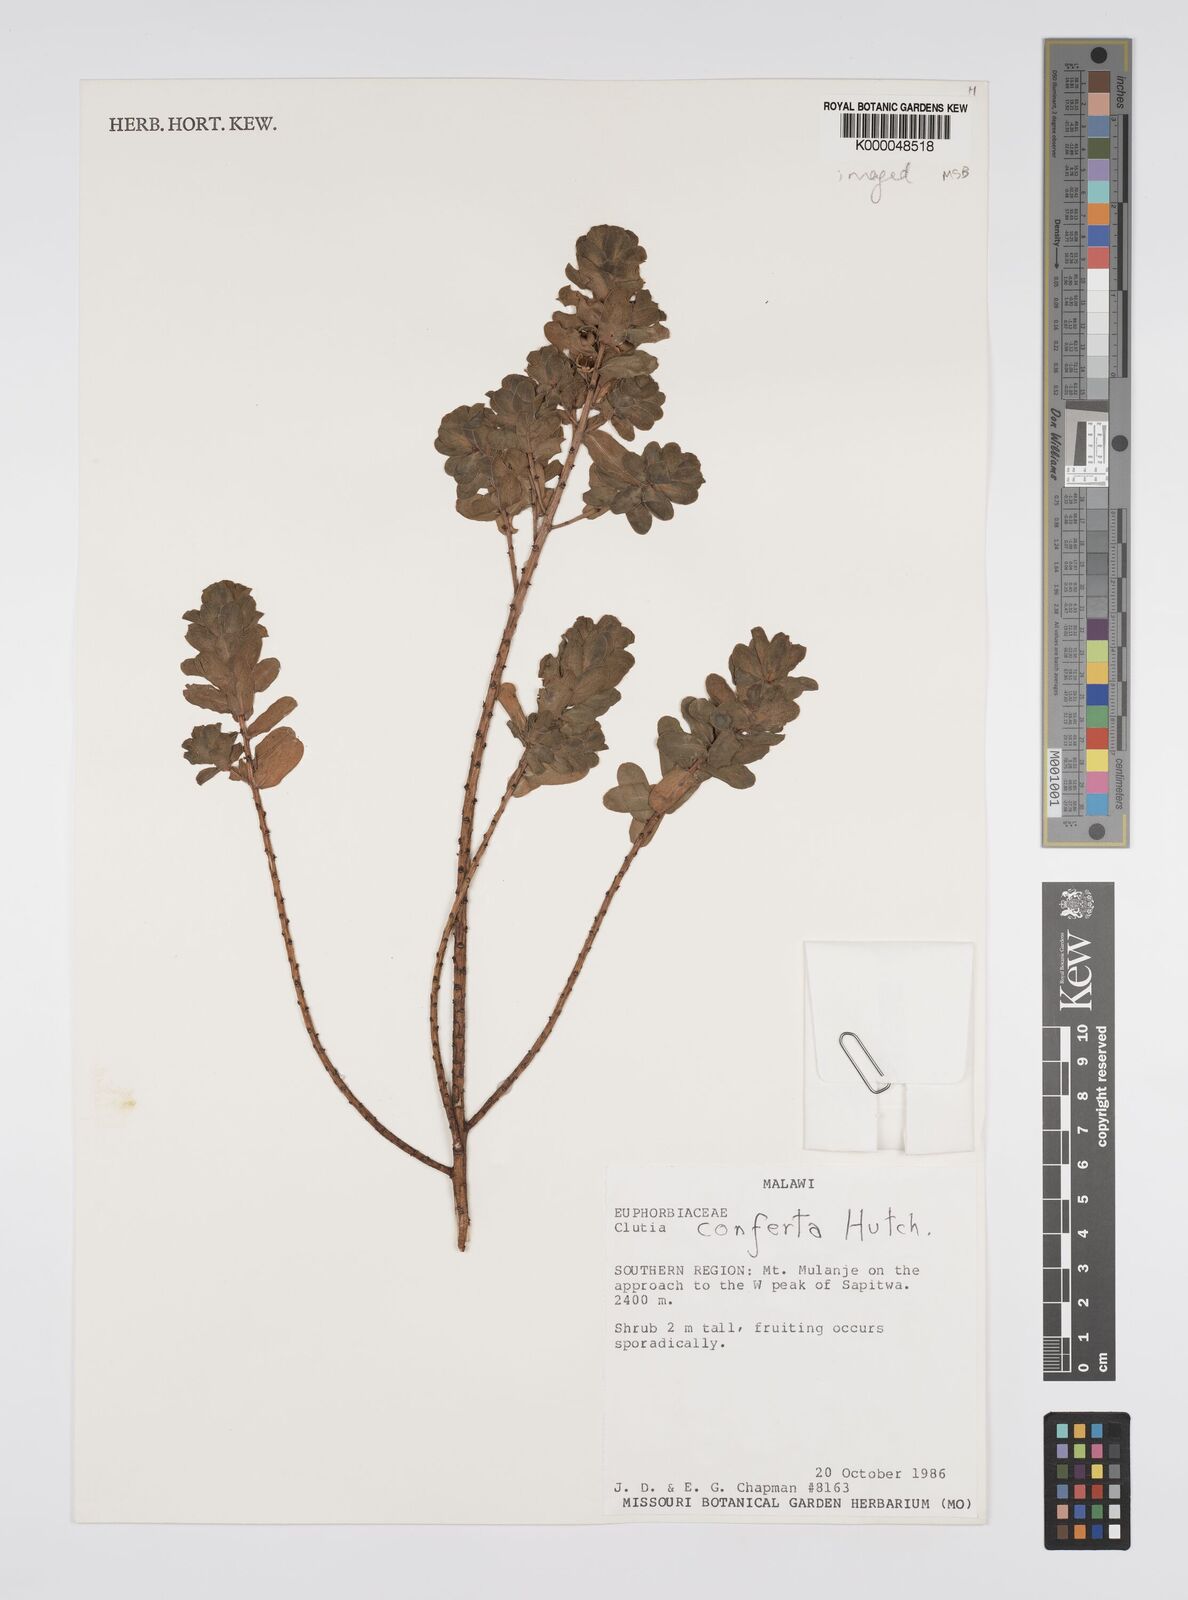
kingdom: Plantae
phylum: Tracheophyta
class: Magnoliopsida
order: Malpighiales
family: Peraceae
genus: Clutia
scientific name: Clutia conferta
